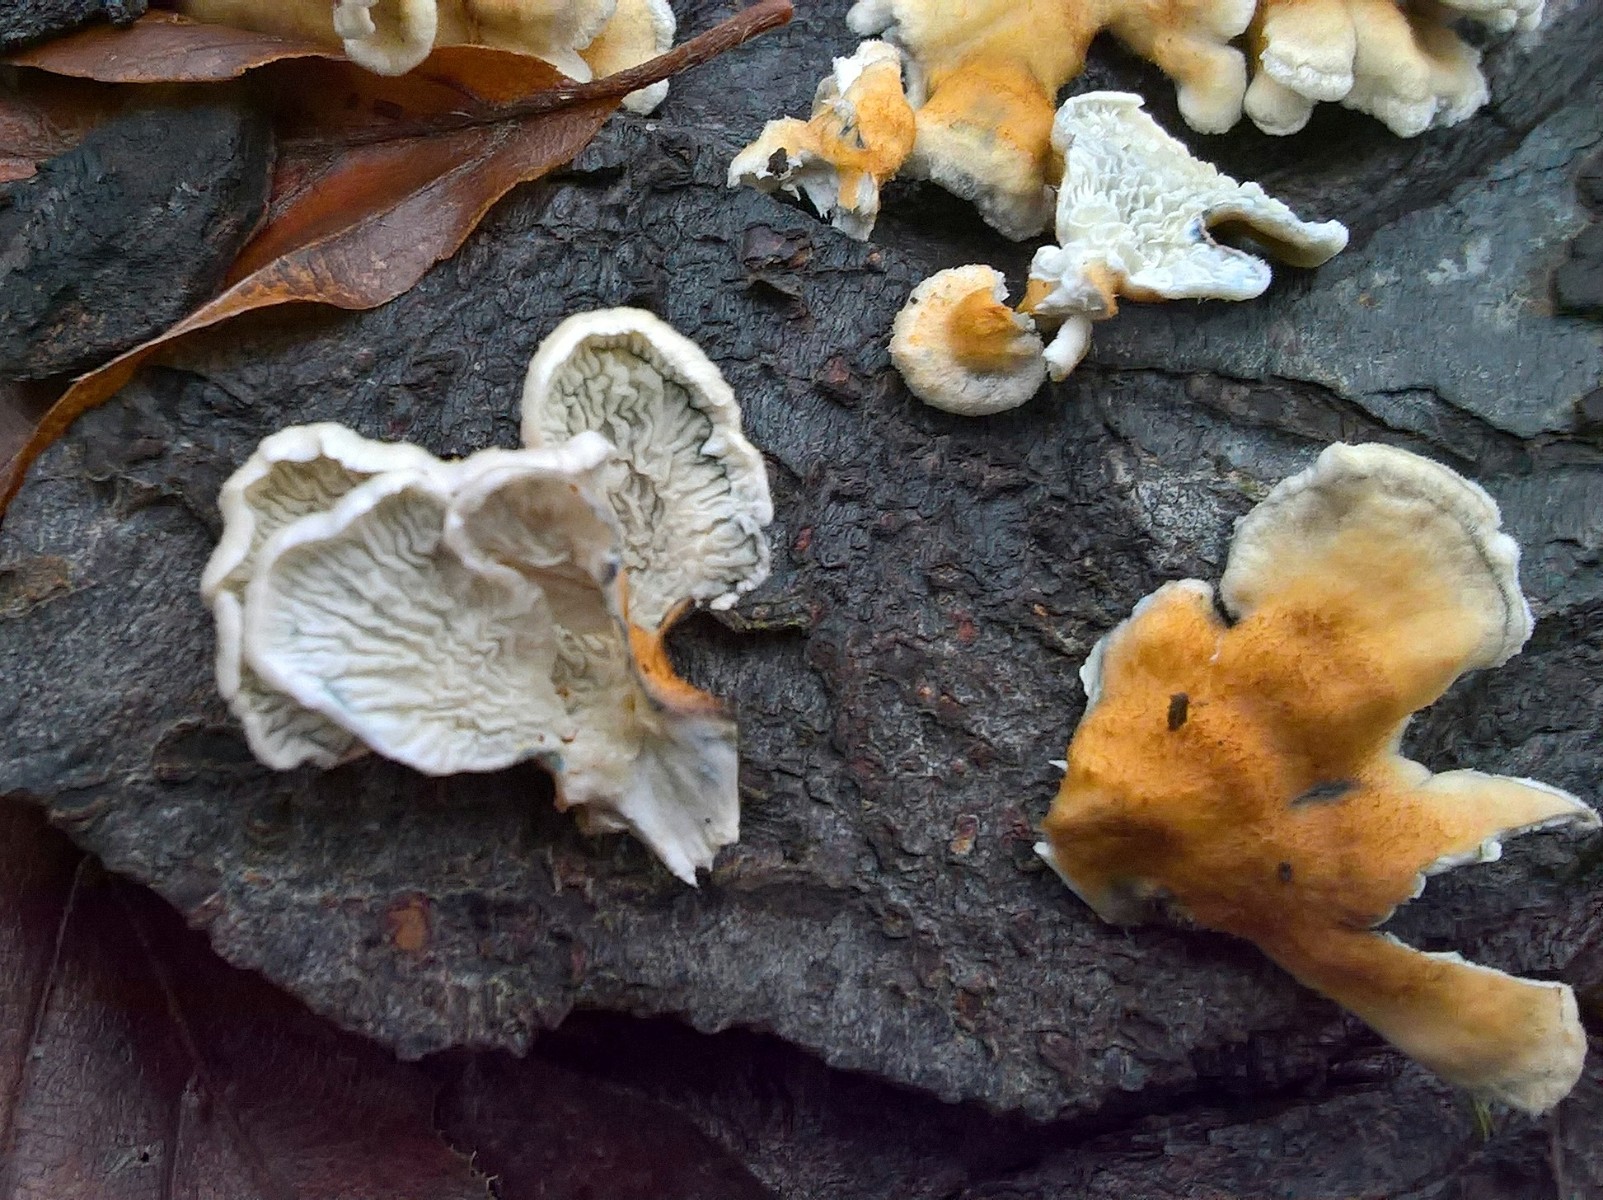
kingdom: Fungi
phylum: Basidiomycota
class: Agaricomycetes
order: Amylocorticiales
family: Amylocorticiaceae
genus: Plicaturopsis
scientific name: Plicaturopsis crispa
